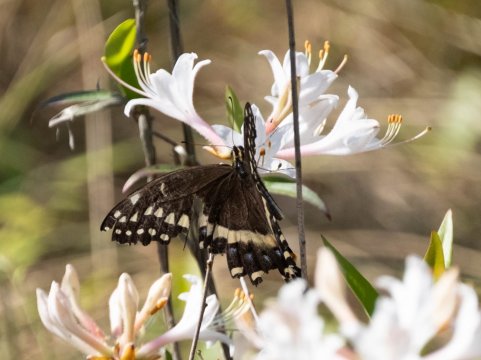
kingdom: Animalia
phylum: Arthropoda
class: Insecta
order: Lepidoptera
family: Papilionidae
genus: Pterourus
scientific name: Pterourus palamedes
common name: Palamedes Swallowtail
